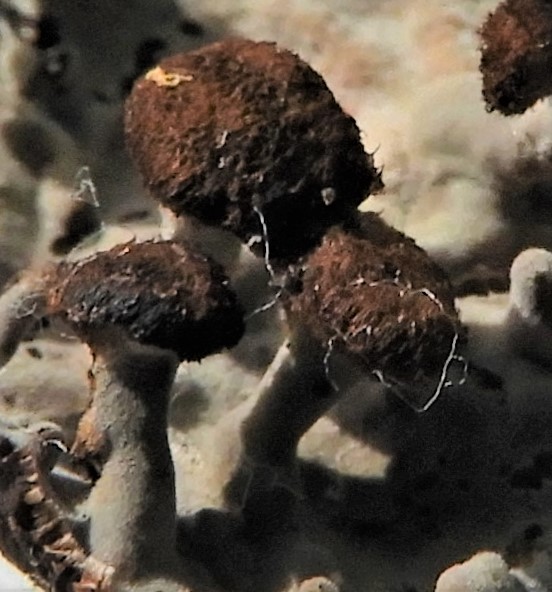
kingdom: Fungi
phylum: Basidiomycota
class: Agaricomycetes
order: Russulales
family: Peniophoraceae
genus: Peniophora
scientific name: Peniophora
